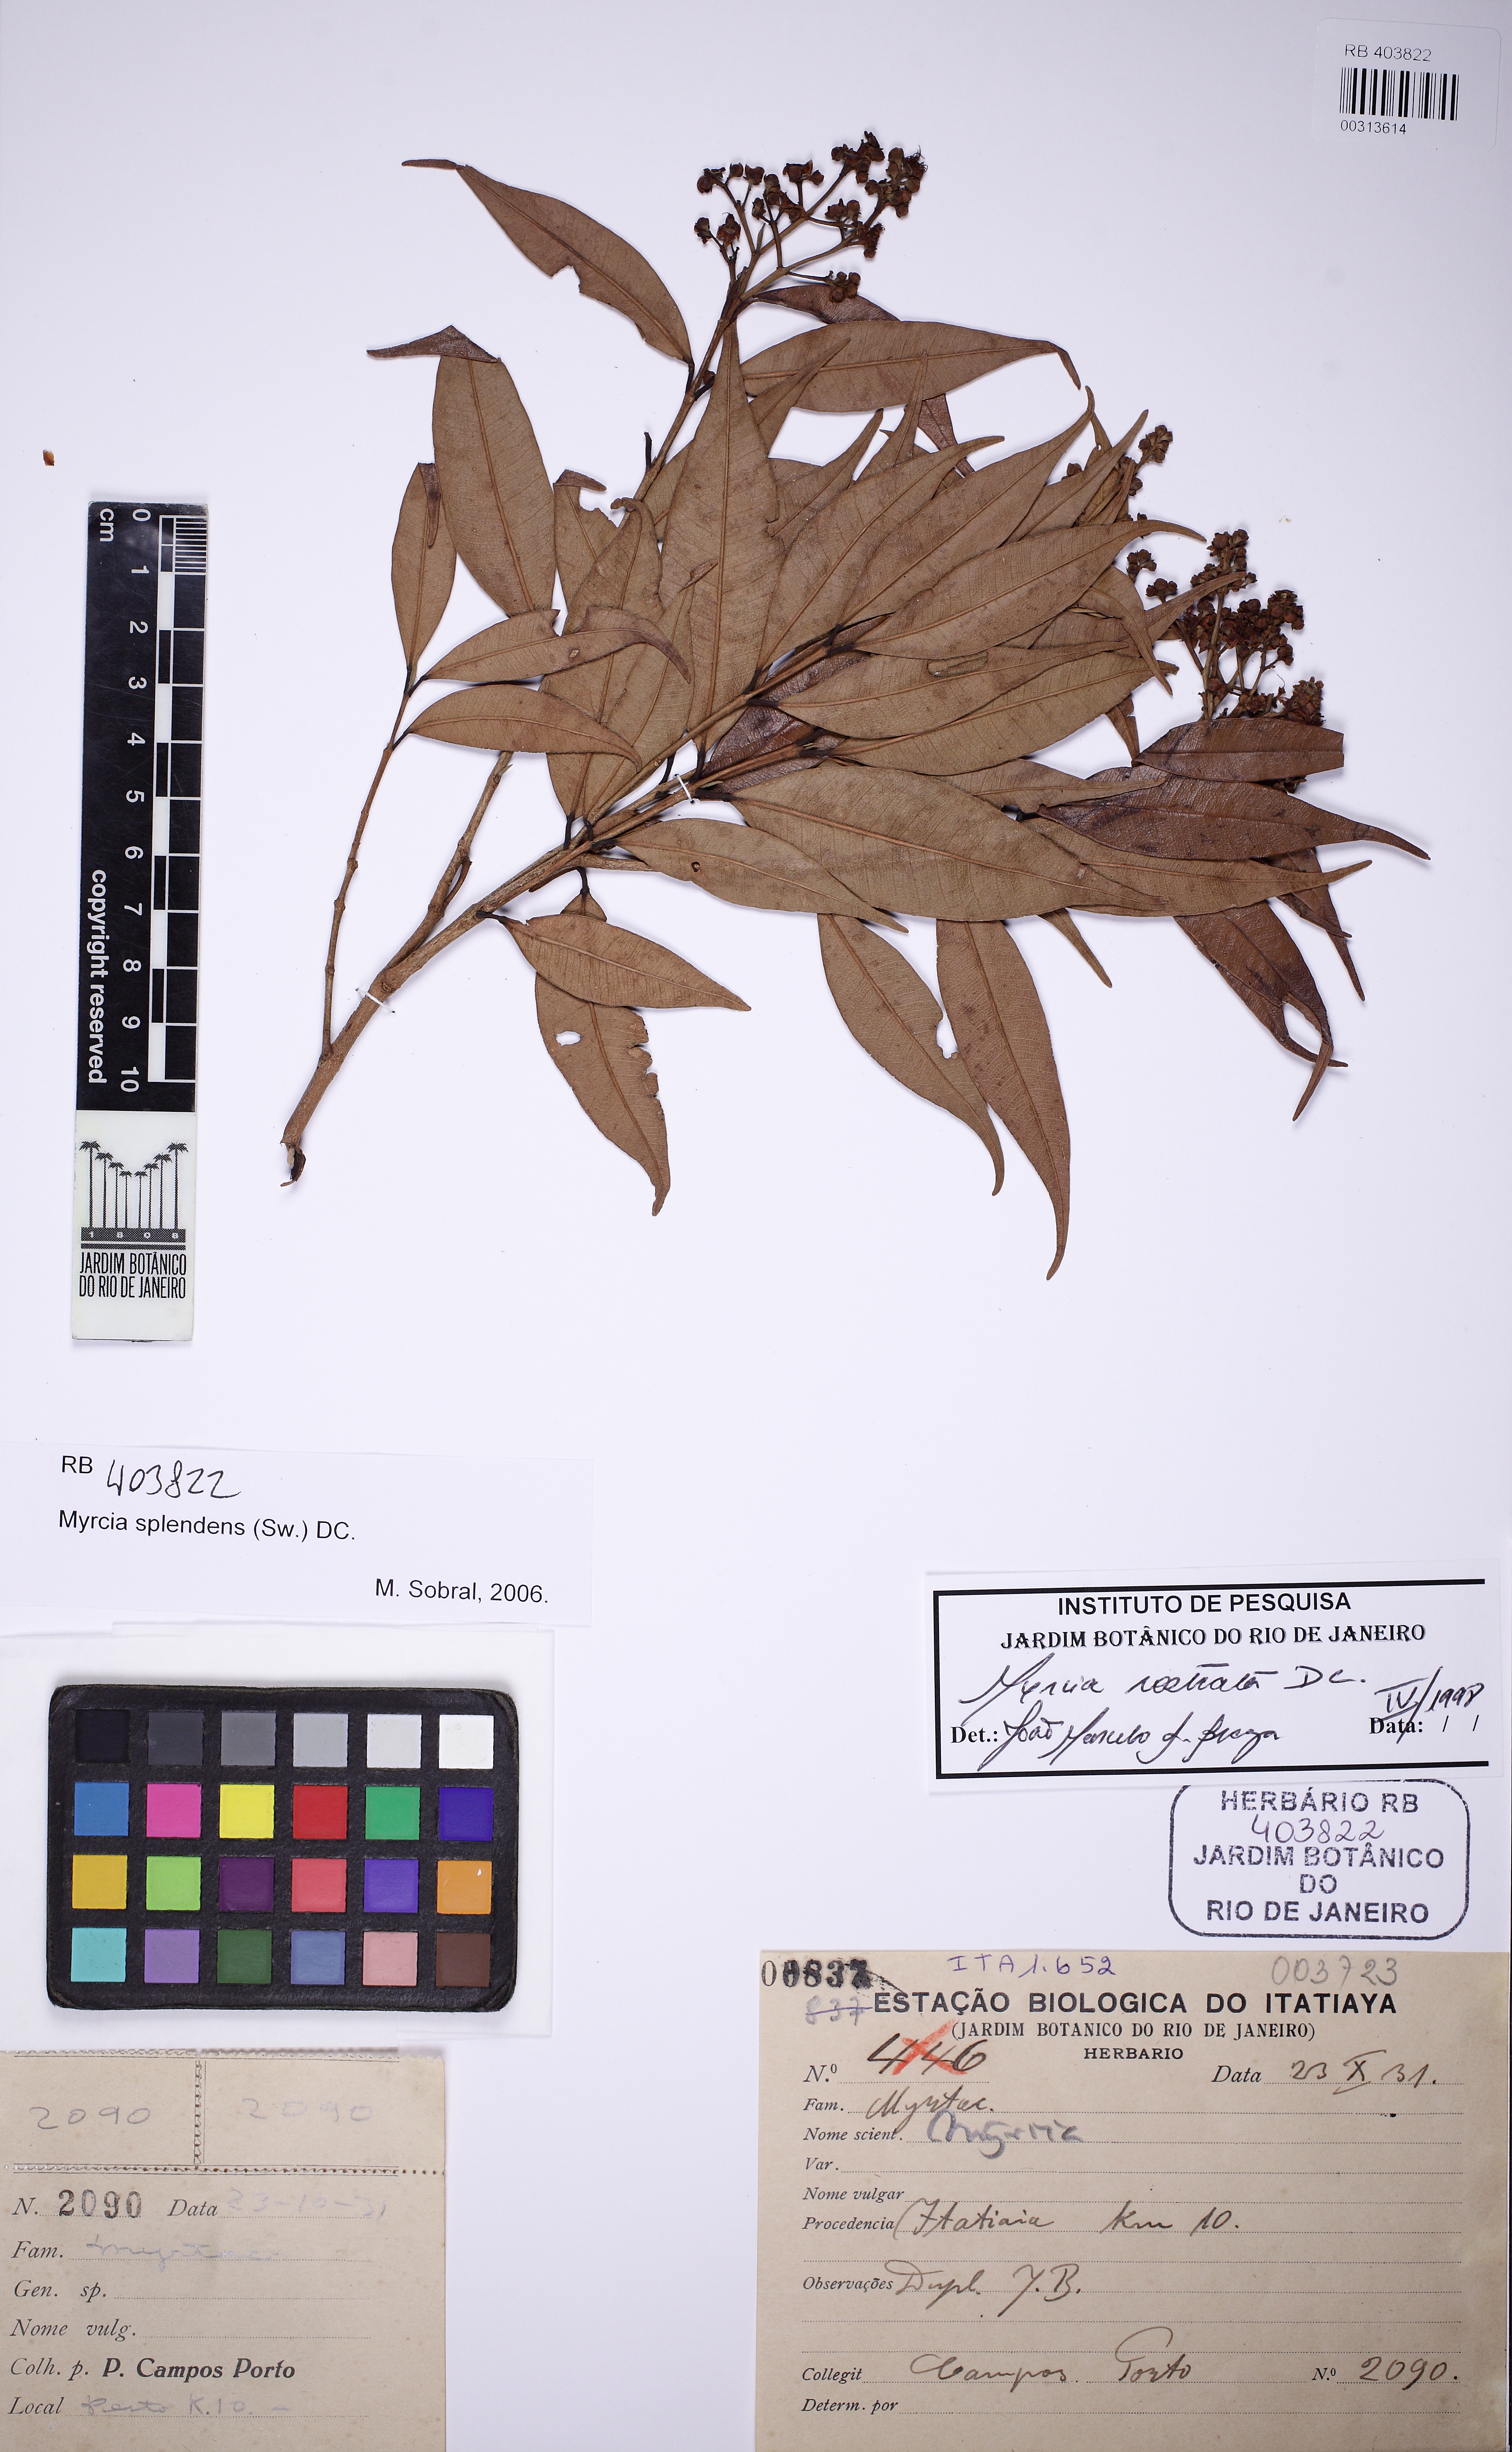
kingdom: Plantae
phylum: Tracheophyta
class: Magnoliopsida
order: Myrtales
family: Myrtaceae
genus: Myrcia
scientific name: Myrcia splendens
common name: Surinam cherry
